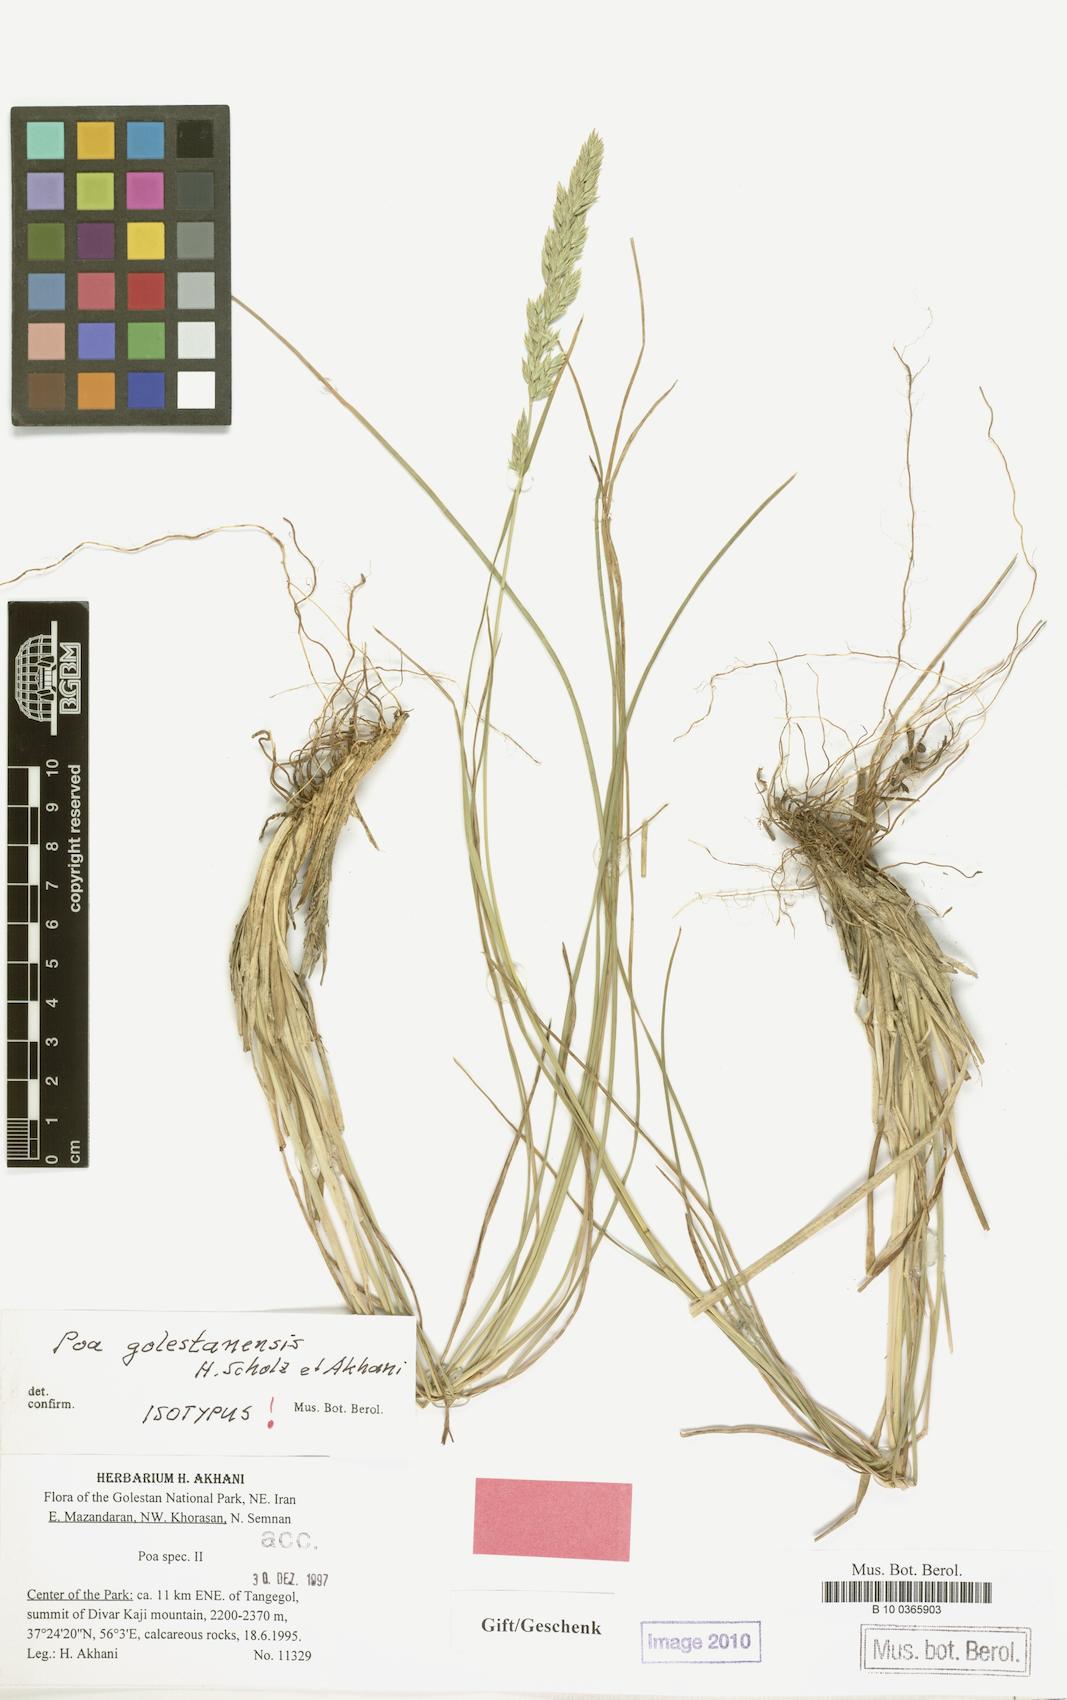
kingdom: Plantae
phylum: Tracheophyta
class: Liliopsida
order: Poales
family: Poaceae
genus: Poa
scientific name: Poa golestanensis
